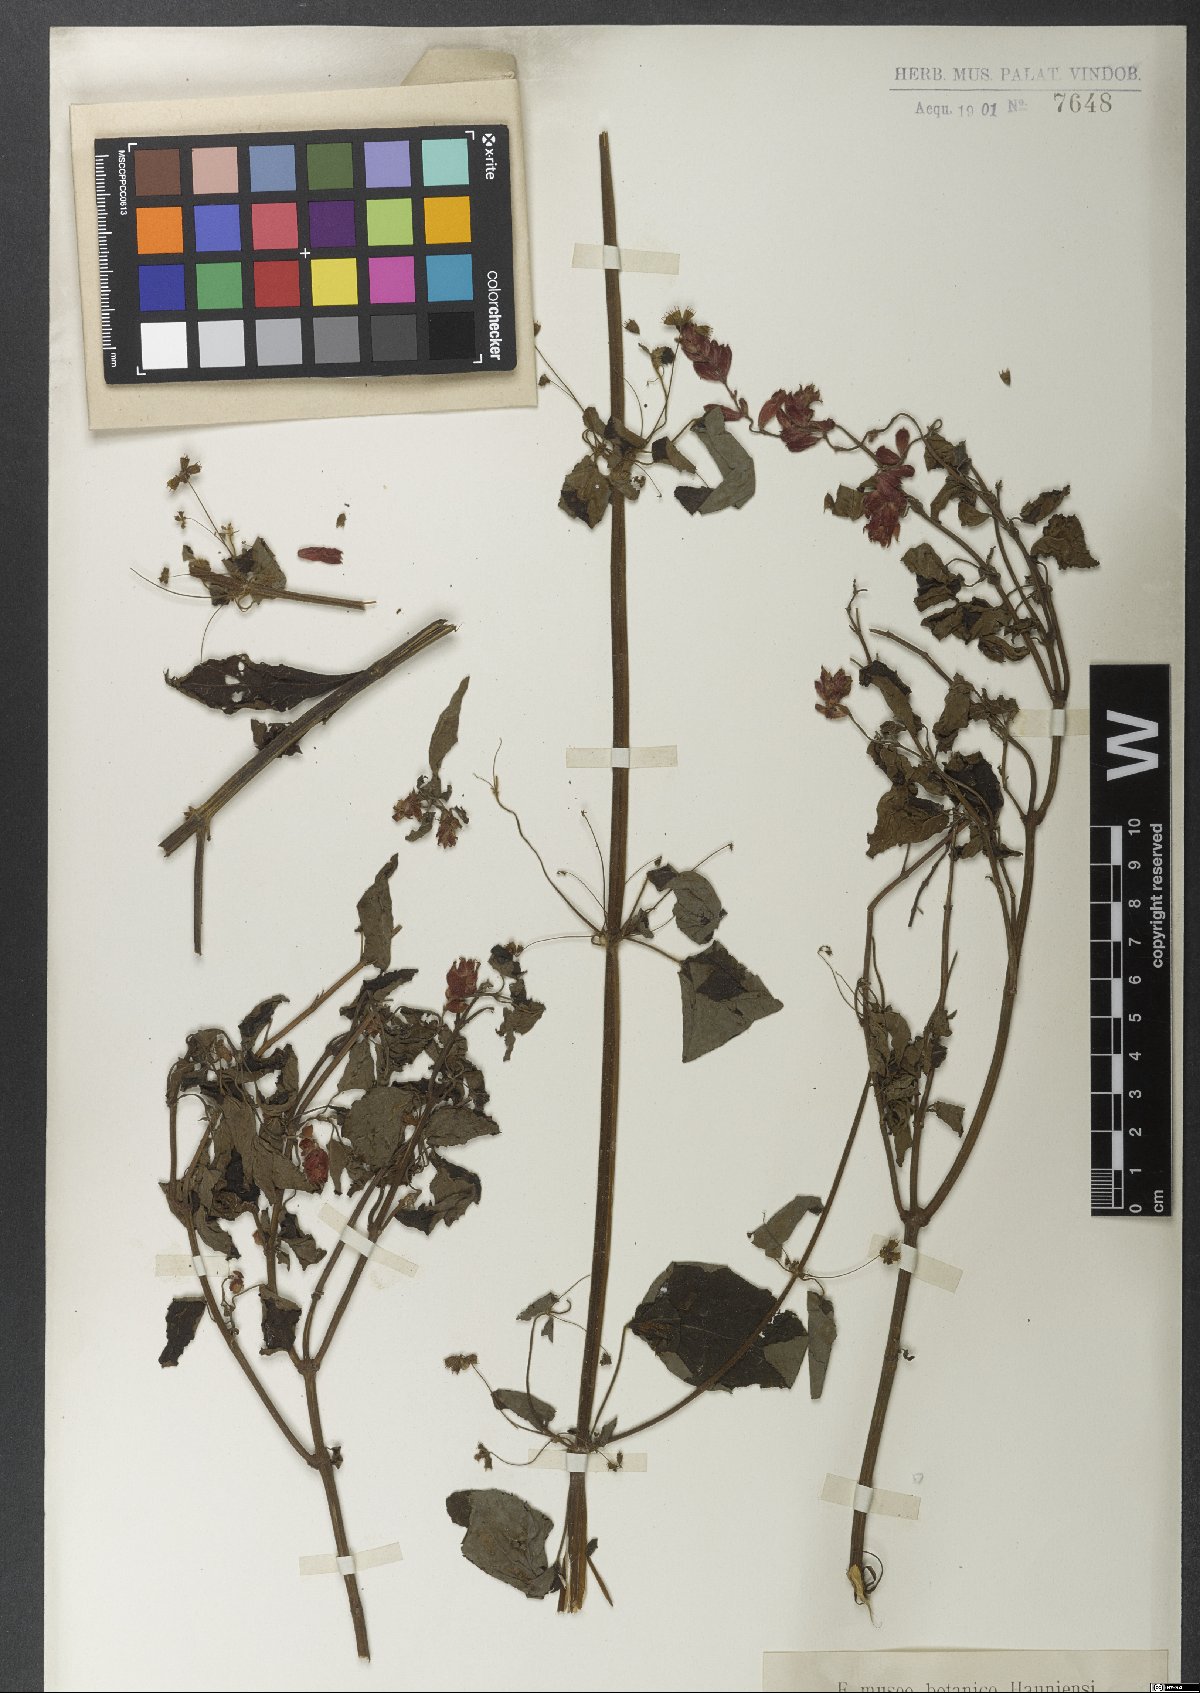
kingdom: Plantae
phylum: Tracheophyta
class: Magnoliopsida
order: Lamiales
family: Lamiaceae
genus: Salvia
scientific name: Salvia splendens
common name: Scarlet sage
